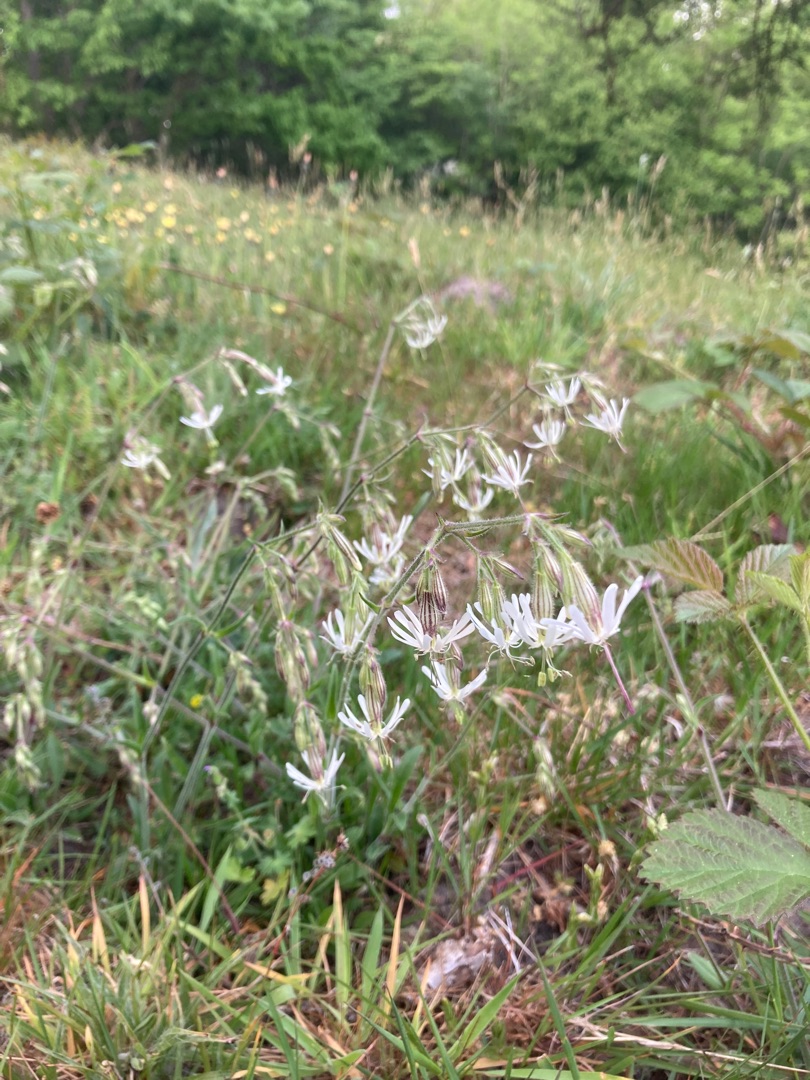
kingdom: Plantae
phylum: Tracheophyta
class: Magnoliopsida
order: Caryophyllales
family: Caryophyllaceae
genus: Silene
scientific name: Silene nutans
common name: Nikkende limurt
